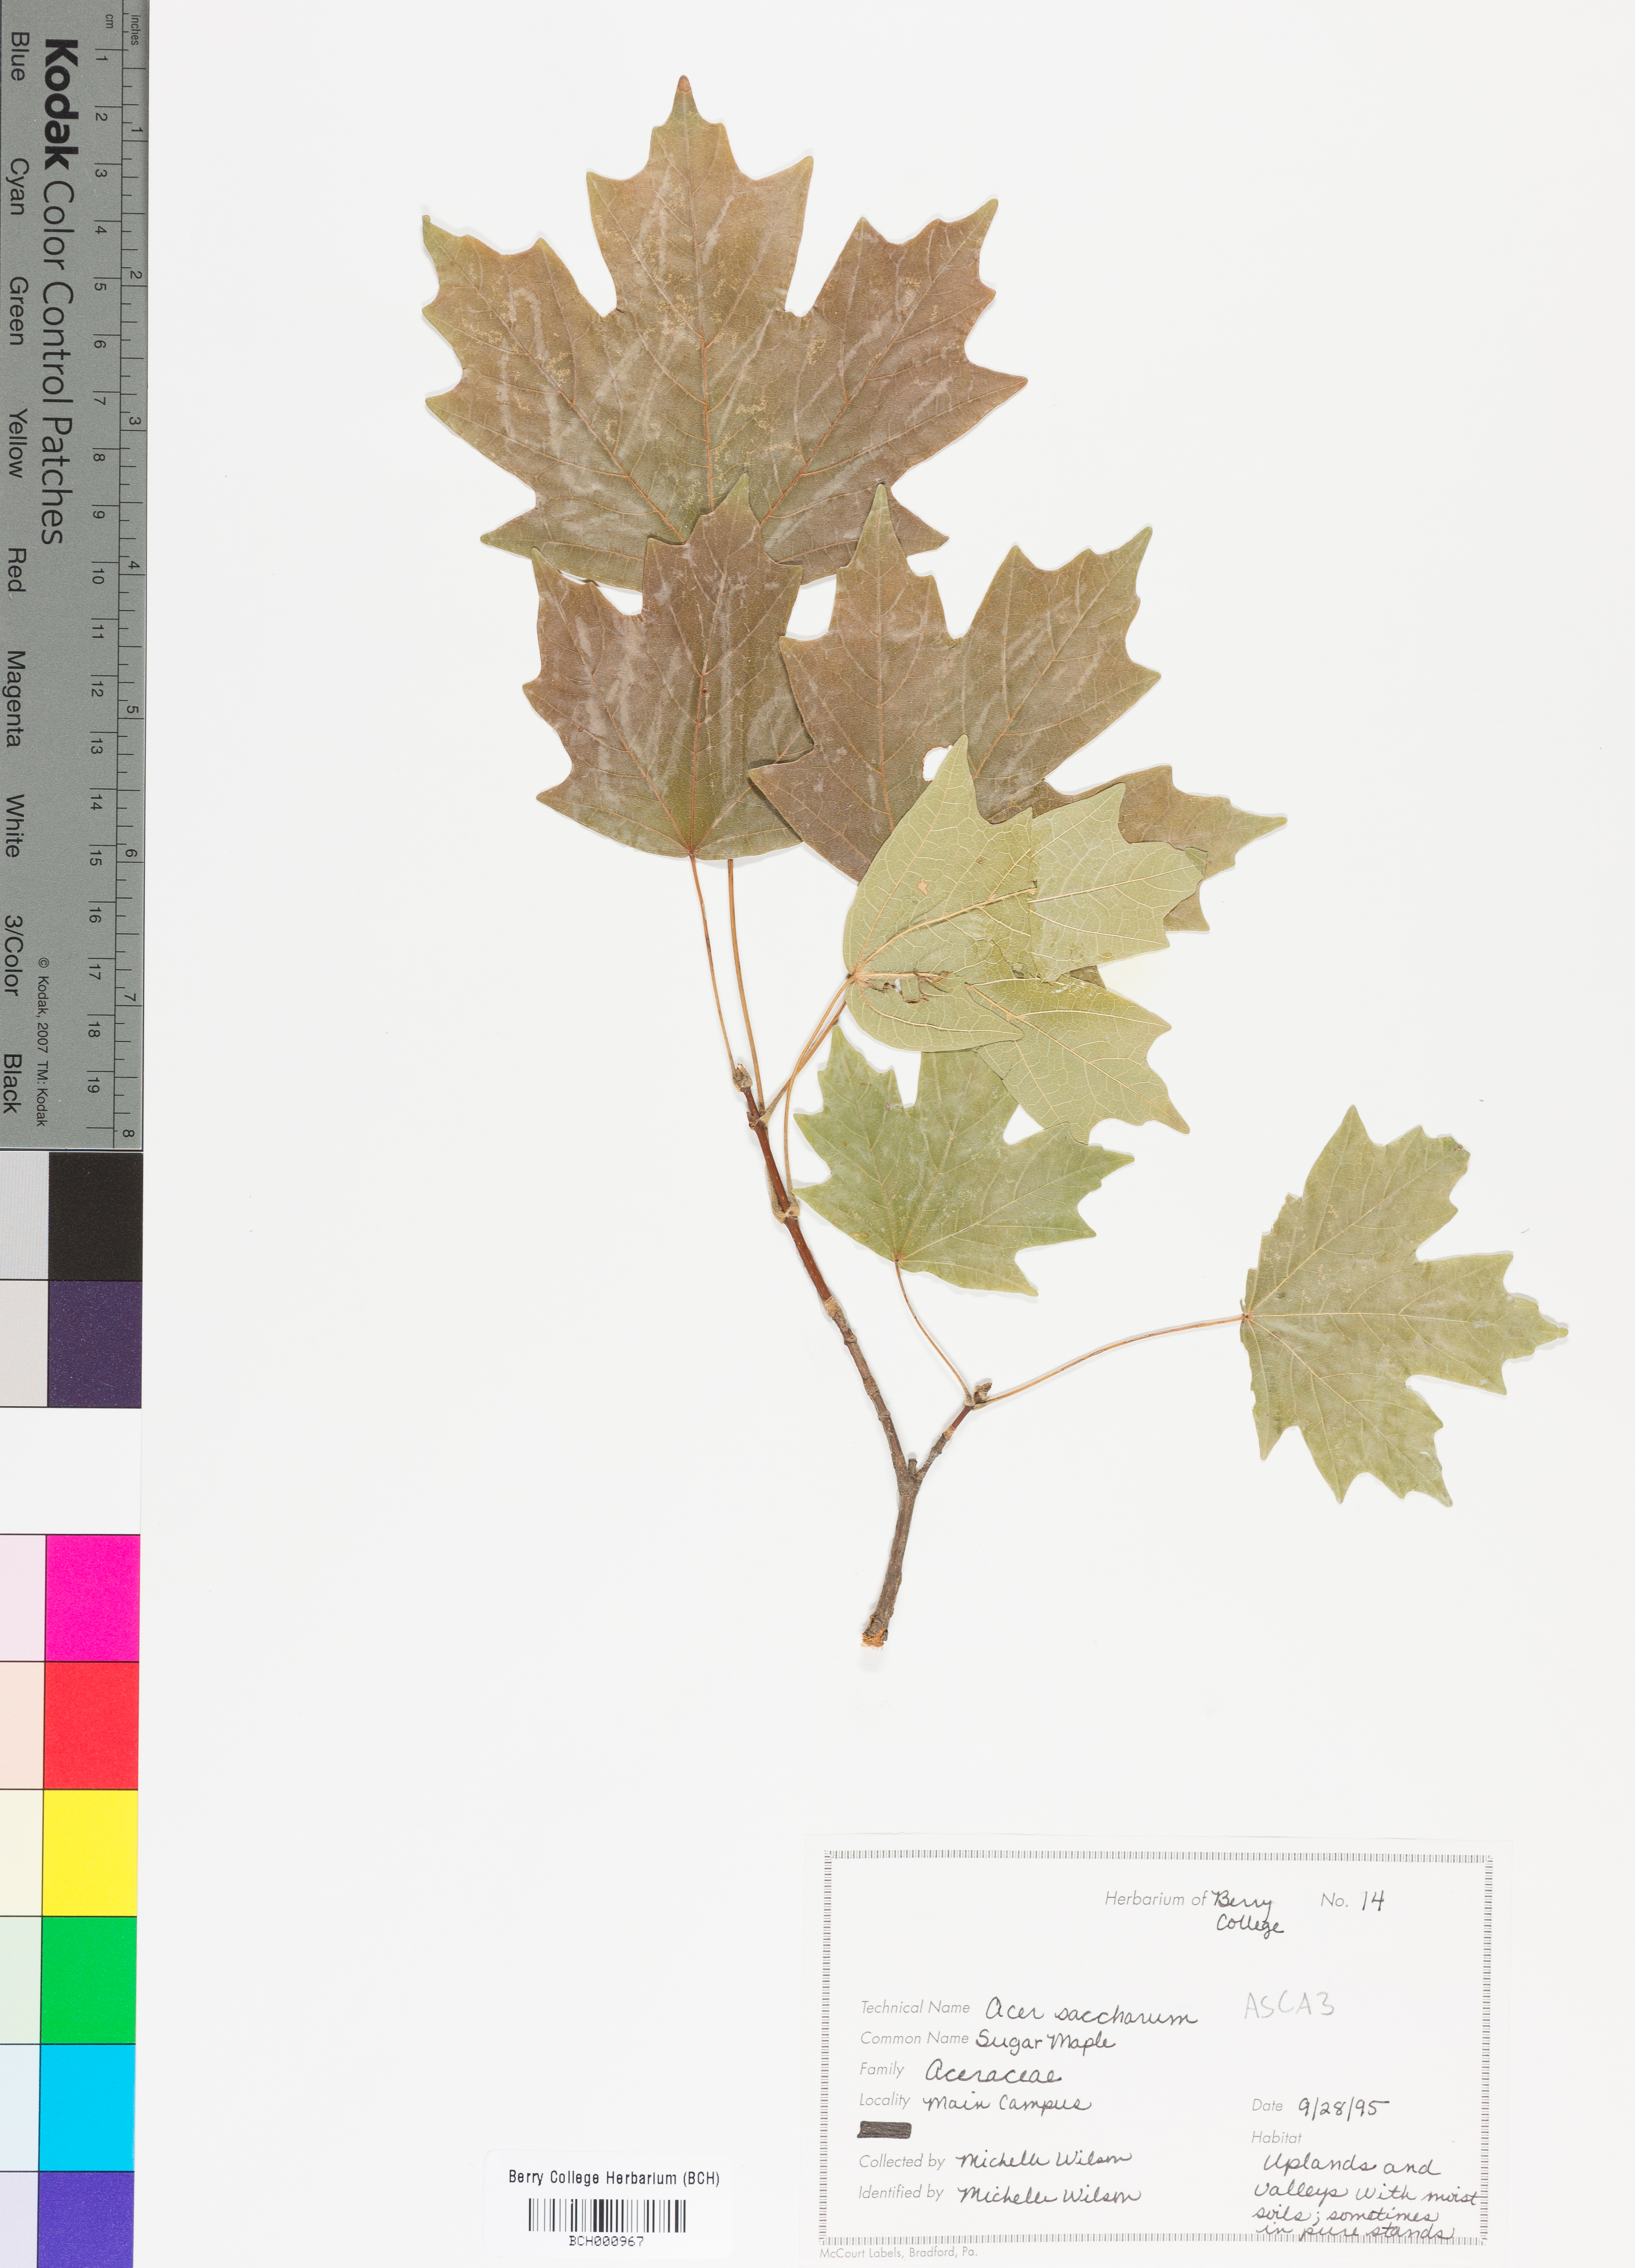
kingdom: Plantae
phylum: Tracheophyta
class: Magnoliopsida
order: Sapindales
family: Sapindaceae
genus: Acer
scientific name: Acer saccharum
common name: Sugar maple
